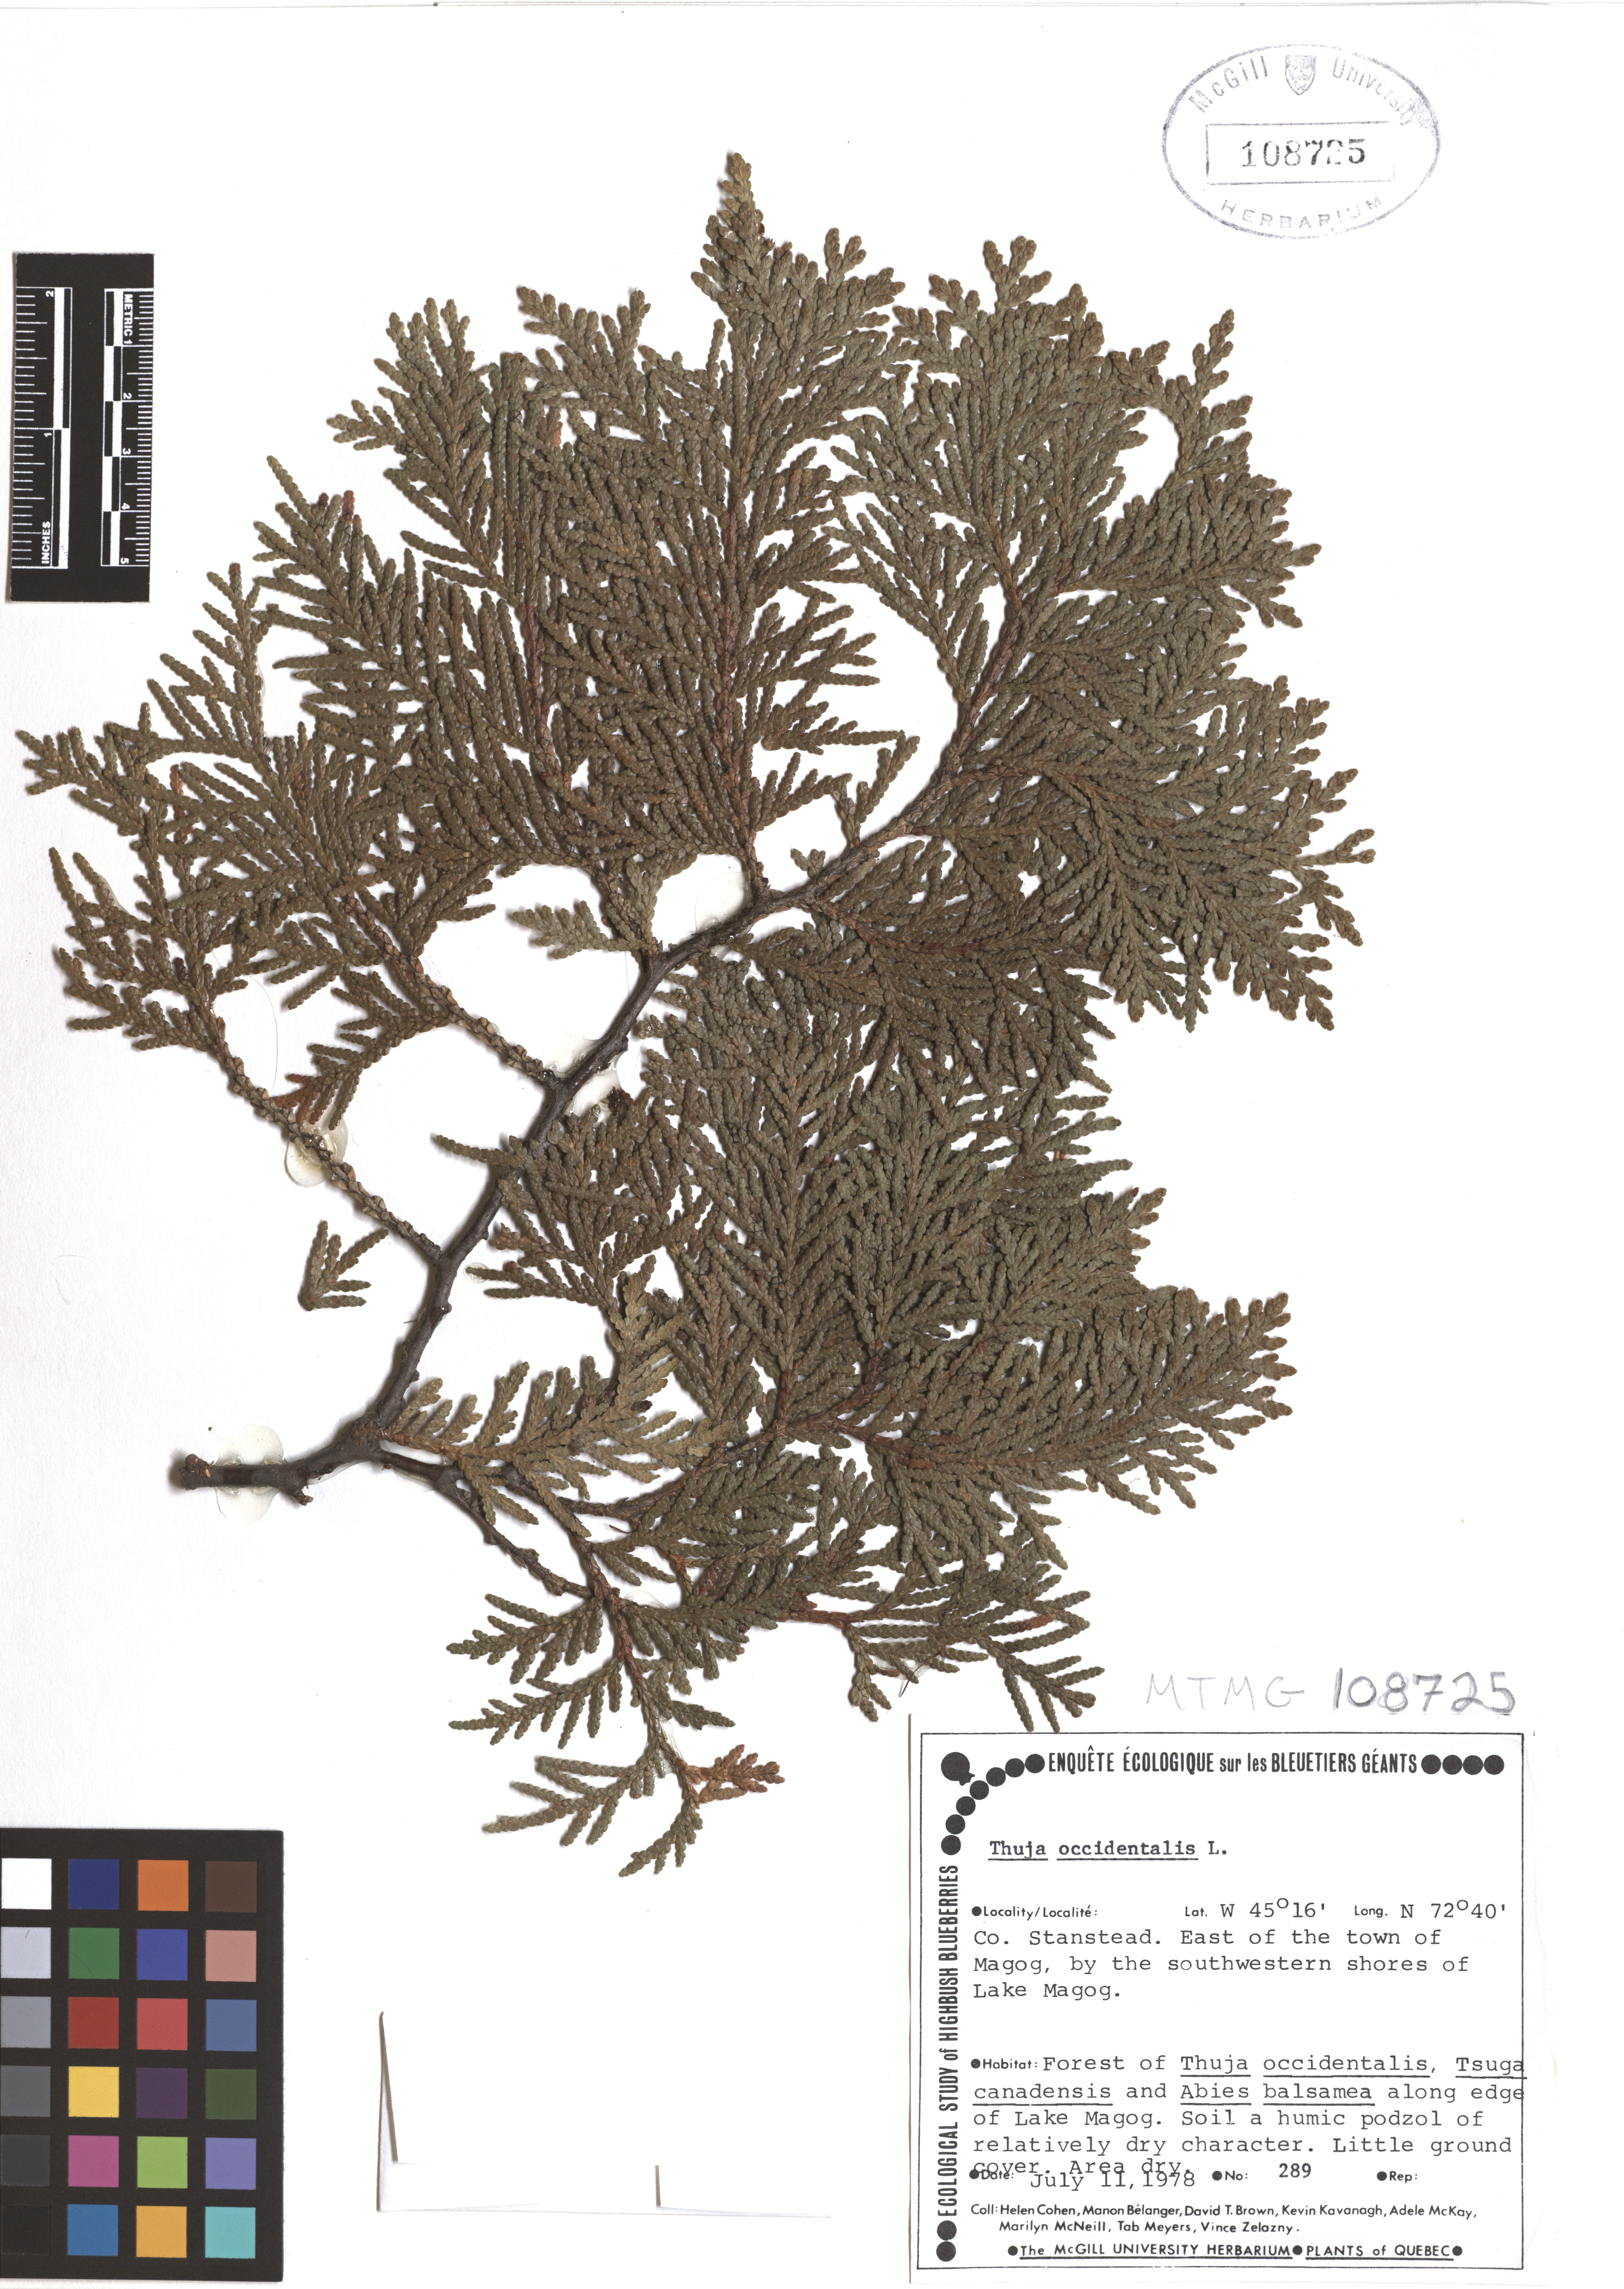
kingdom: Plantae
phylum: Tracheophyta
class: Pinopsida
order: Pinales
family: Cupressaceae
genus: Thuja
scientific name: Thuja occidentalis
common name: Northern white-cedar
